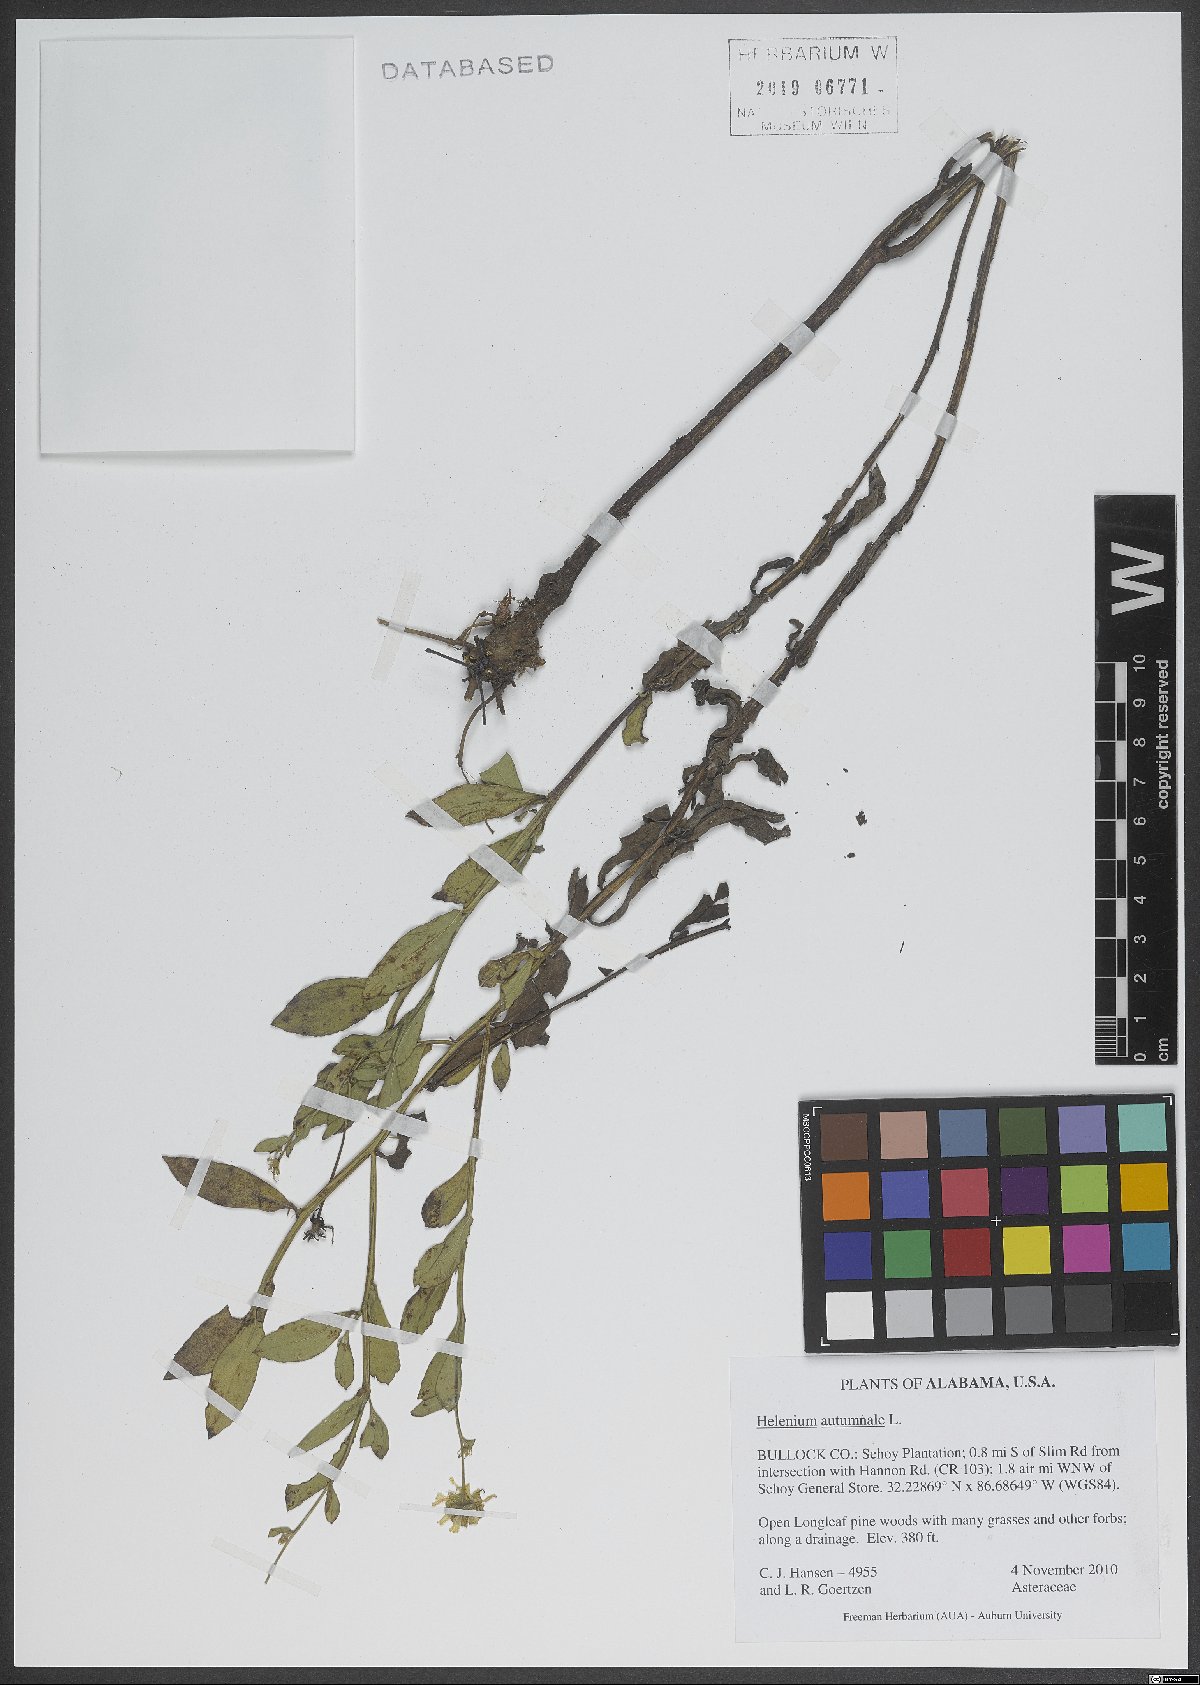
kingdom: Plantae
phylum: Tracheophyta
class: Magnoliopsida
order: Asterales
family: Asteraceae
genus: Helenium
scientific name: Helenium autumnale
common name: Sneezeweed
